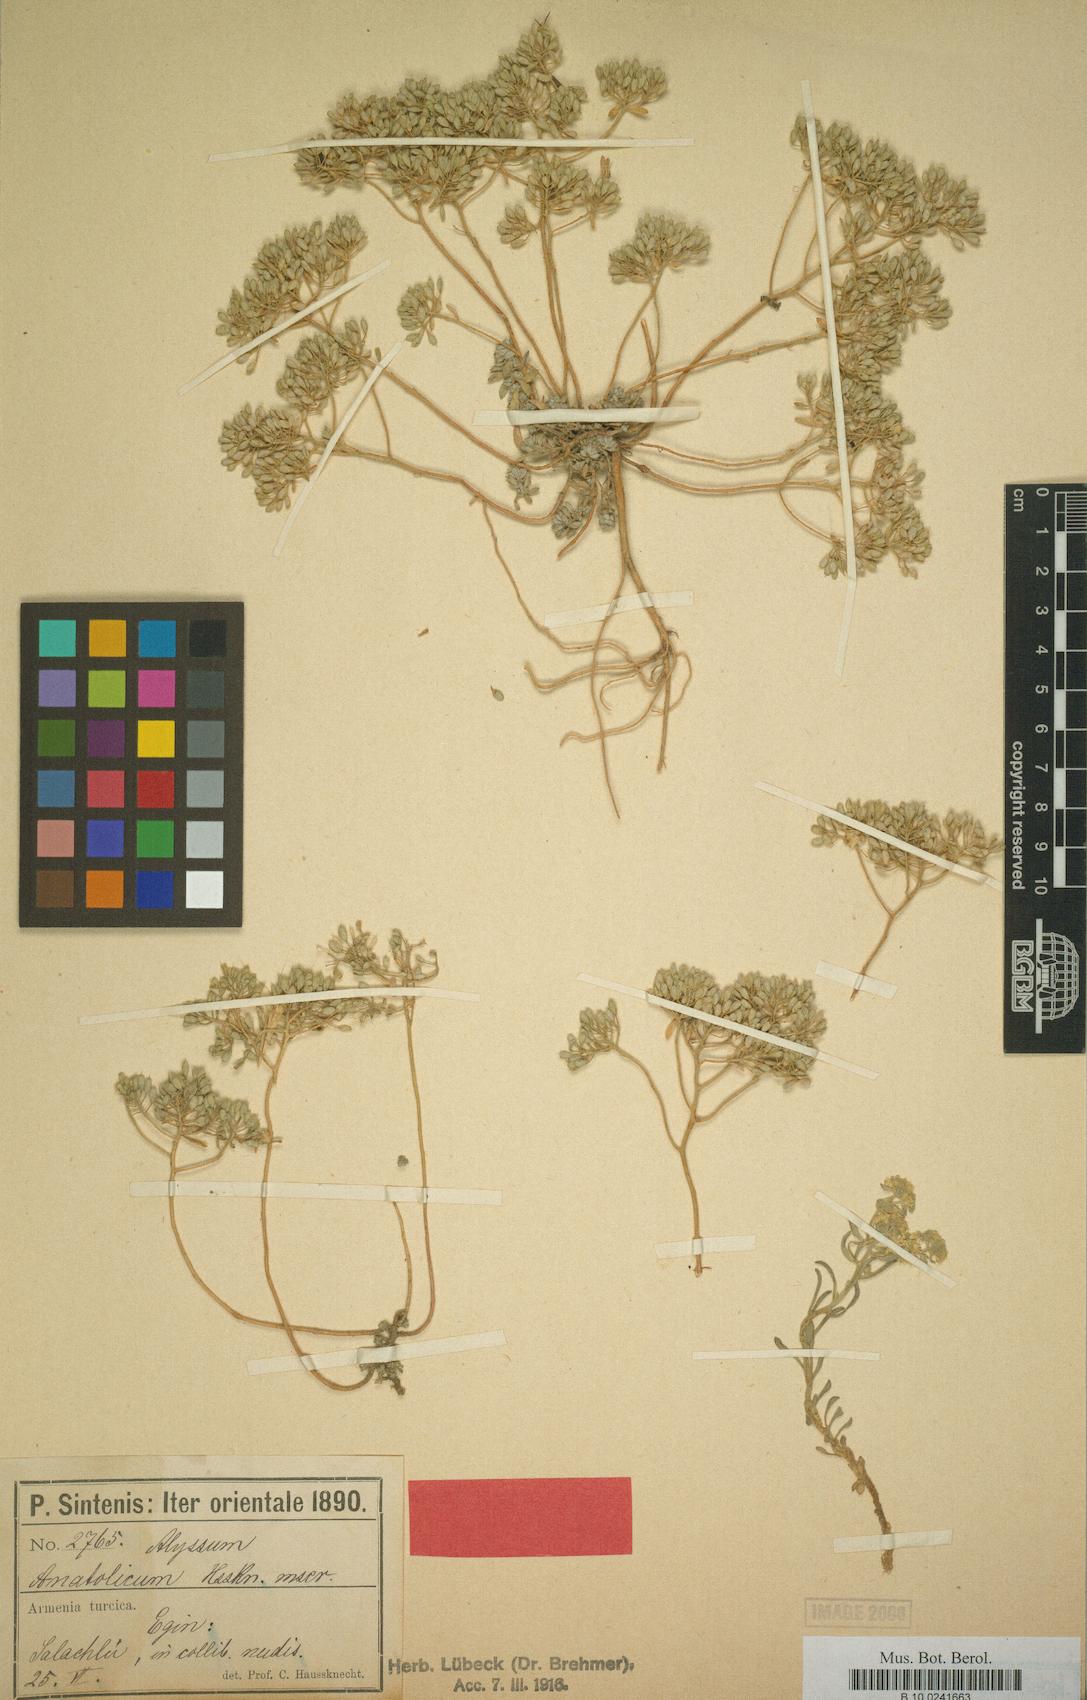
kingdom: Plantae
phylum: Tracheophyta
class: Magnoliopsida
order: Brassicales
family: Brassicaceae
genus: Odontarrhena
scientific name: Odontarrhena anatolica
